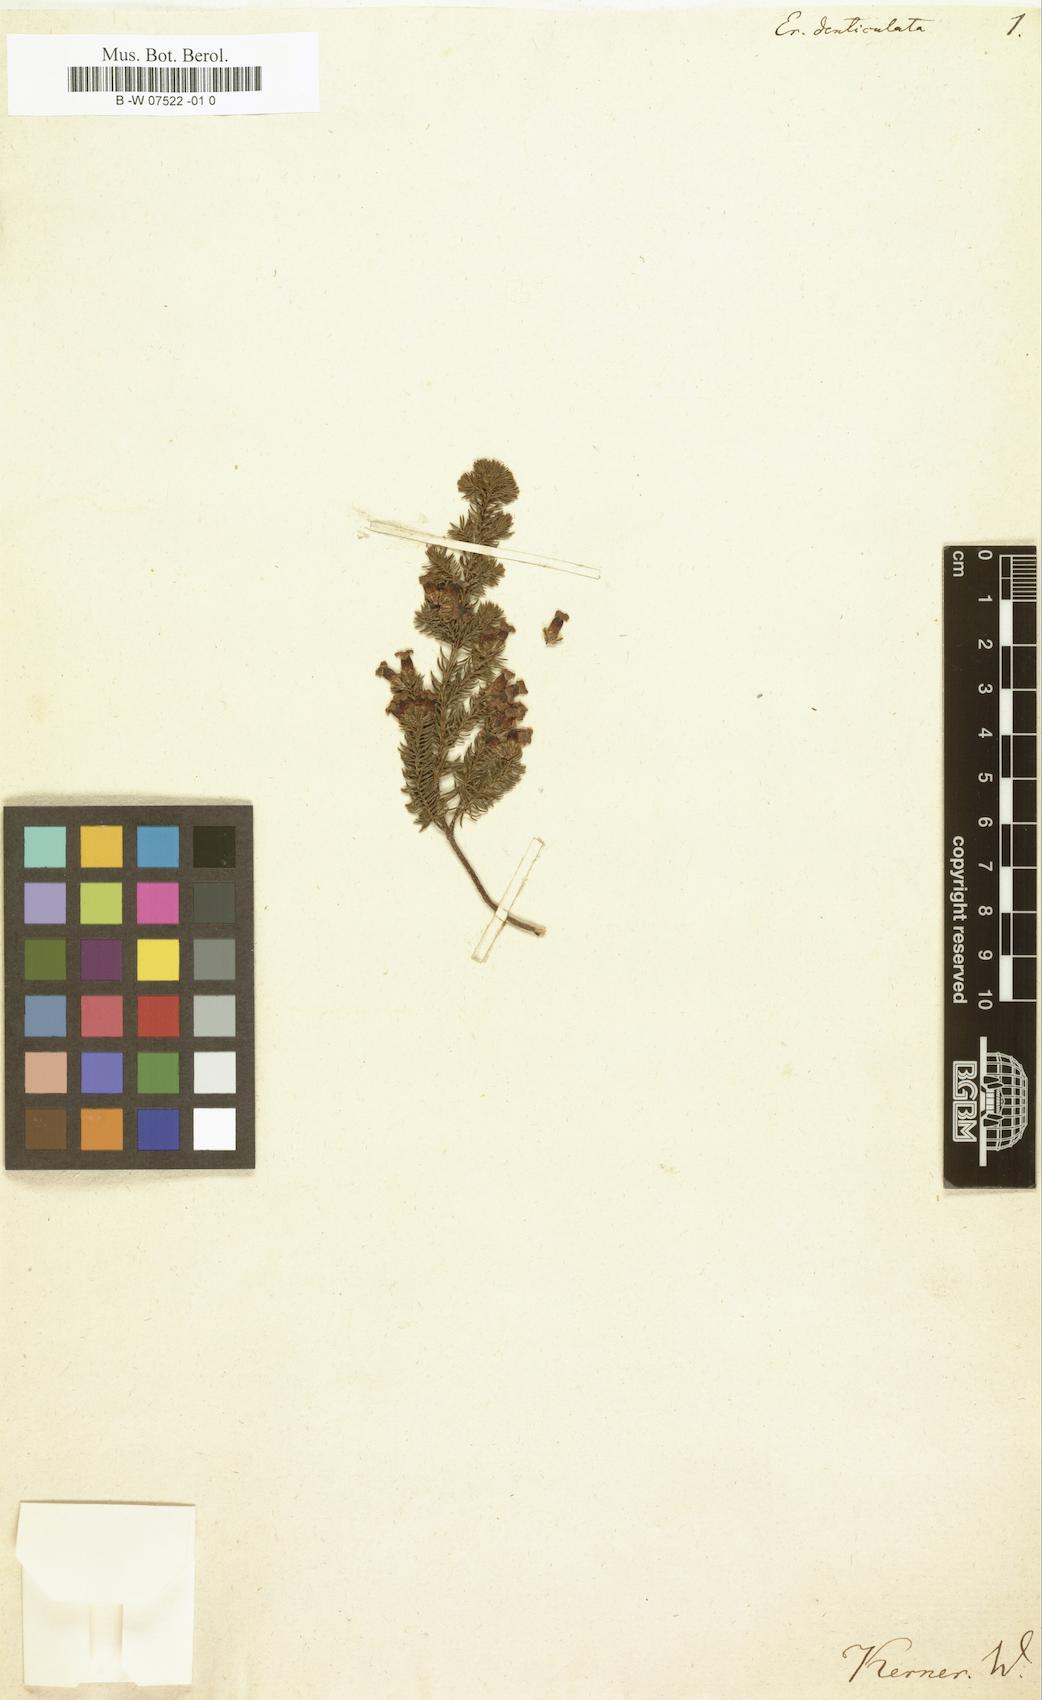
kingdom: Plantae
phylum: Tracheophyta
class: Magnoliopsida
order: Ericales
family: Ericaceae
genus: Erica
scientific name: Erica denticulata
